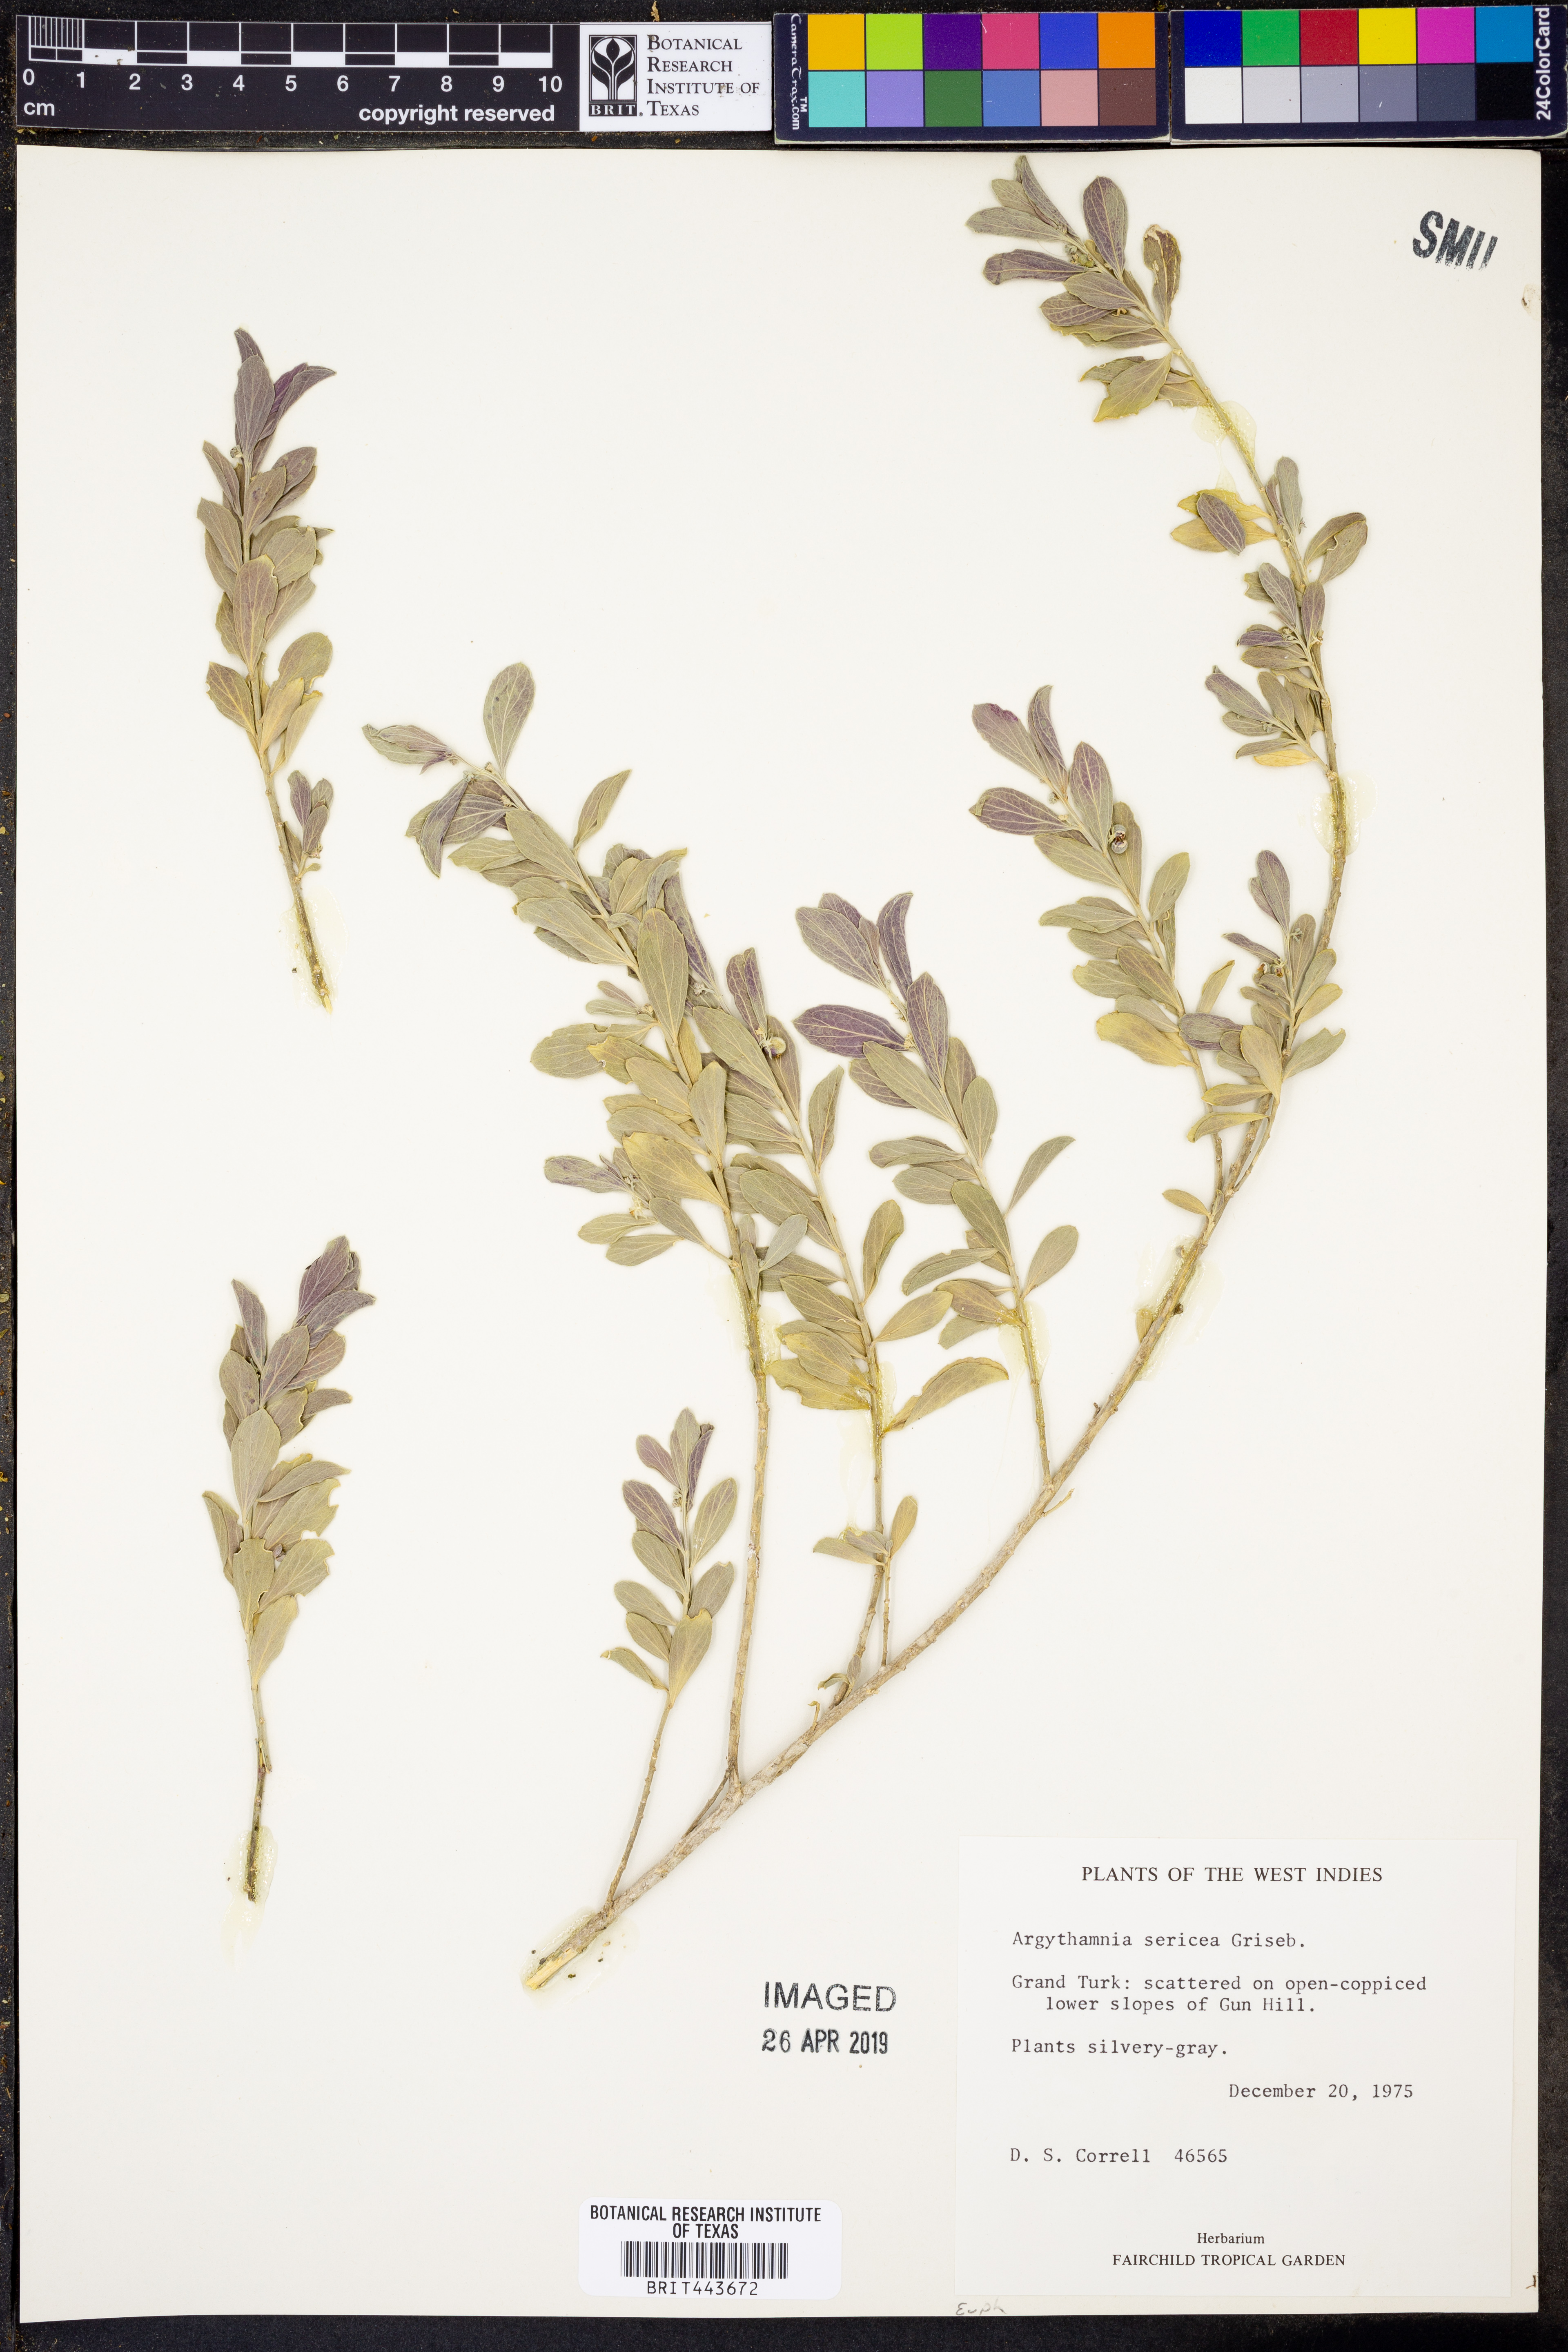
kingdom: Plantae
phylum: Tracheophyta
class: Magnoliopsida
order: Malpighiales
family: Euphorbiaceae
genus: Argythamnia
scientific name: Argythamnia sericea
